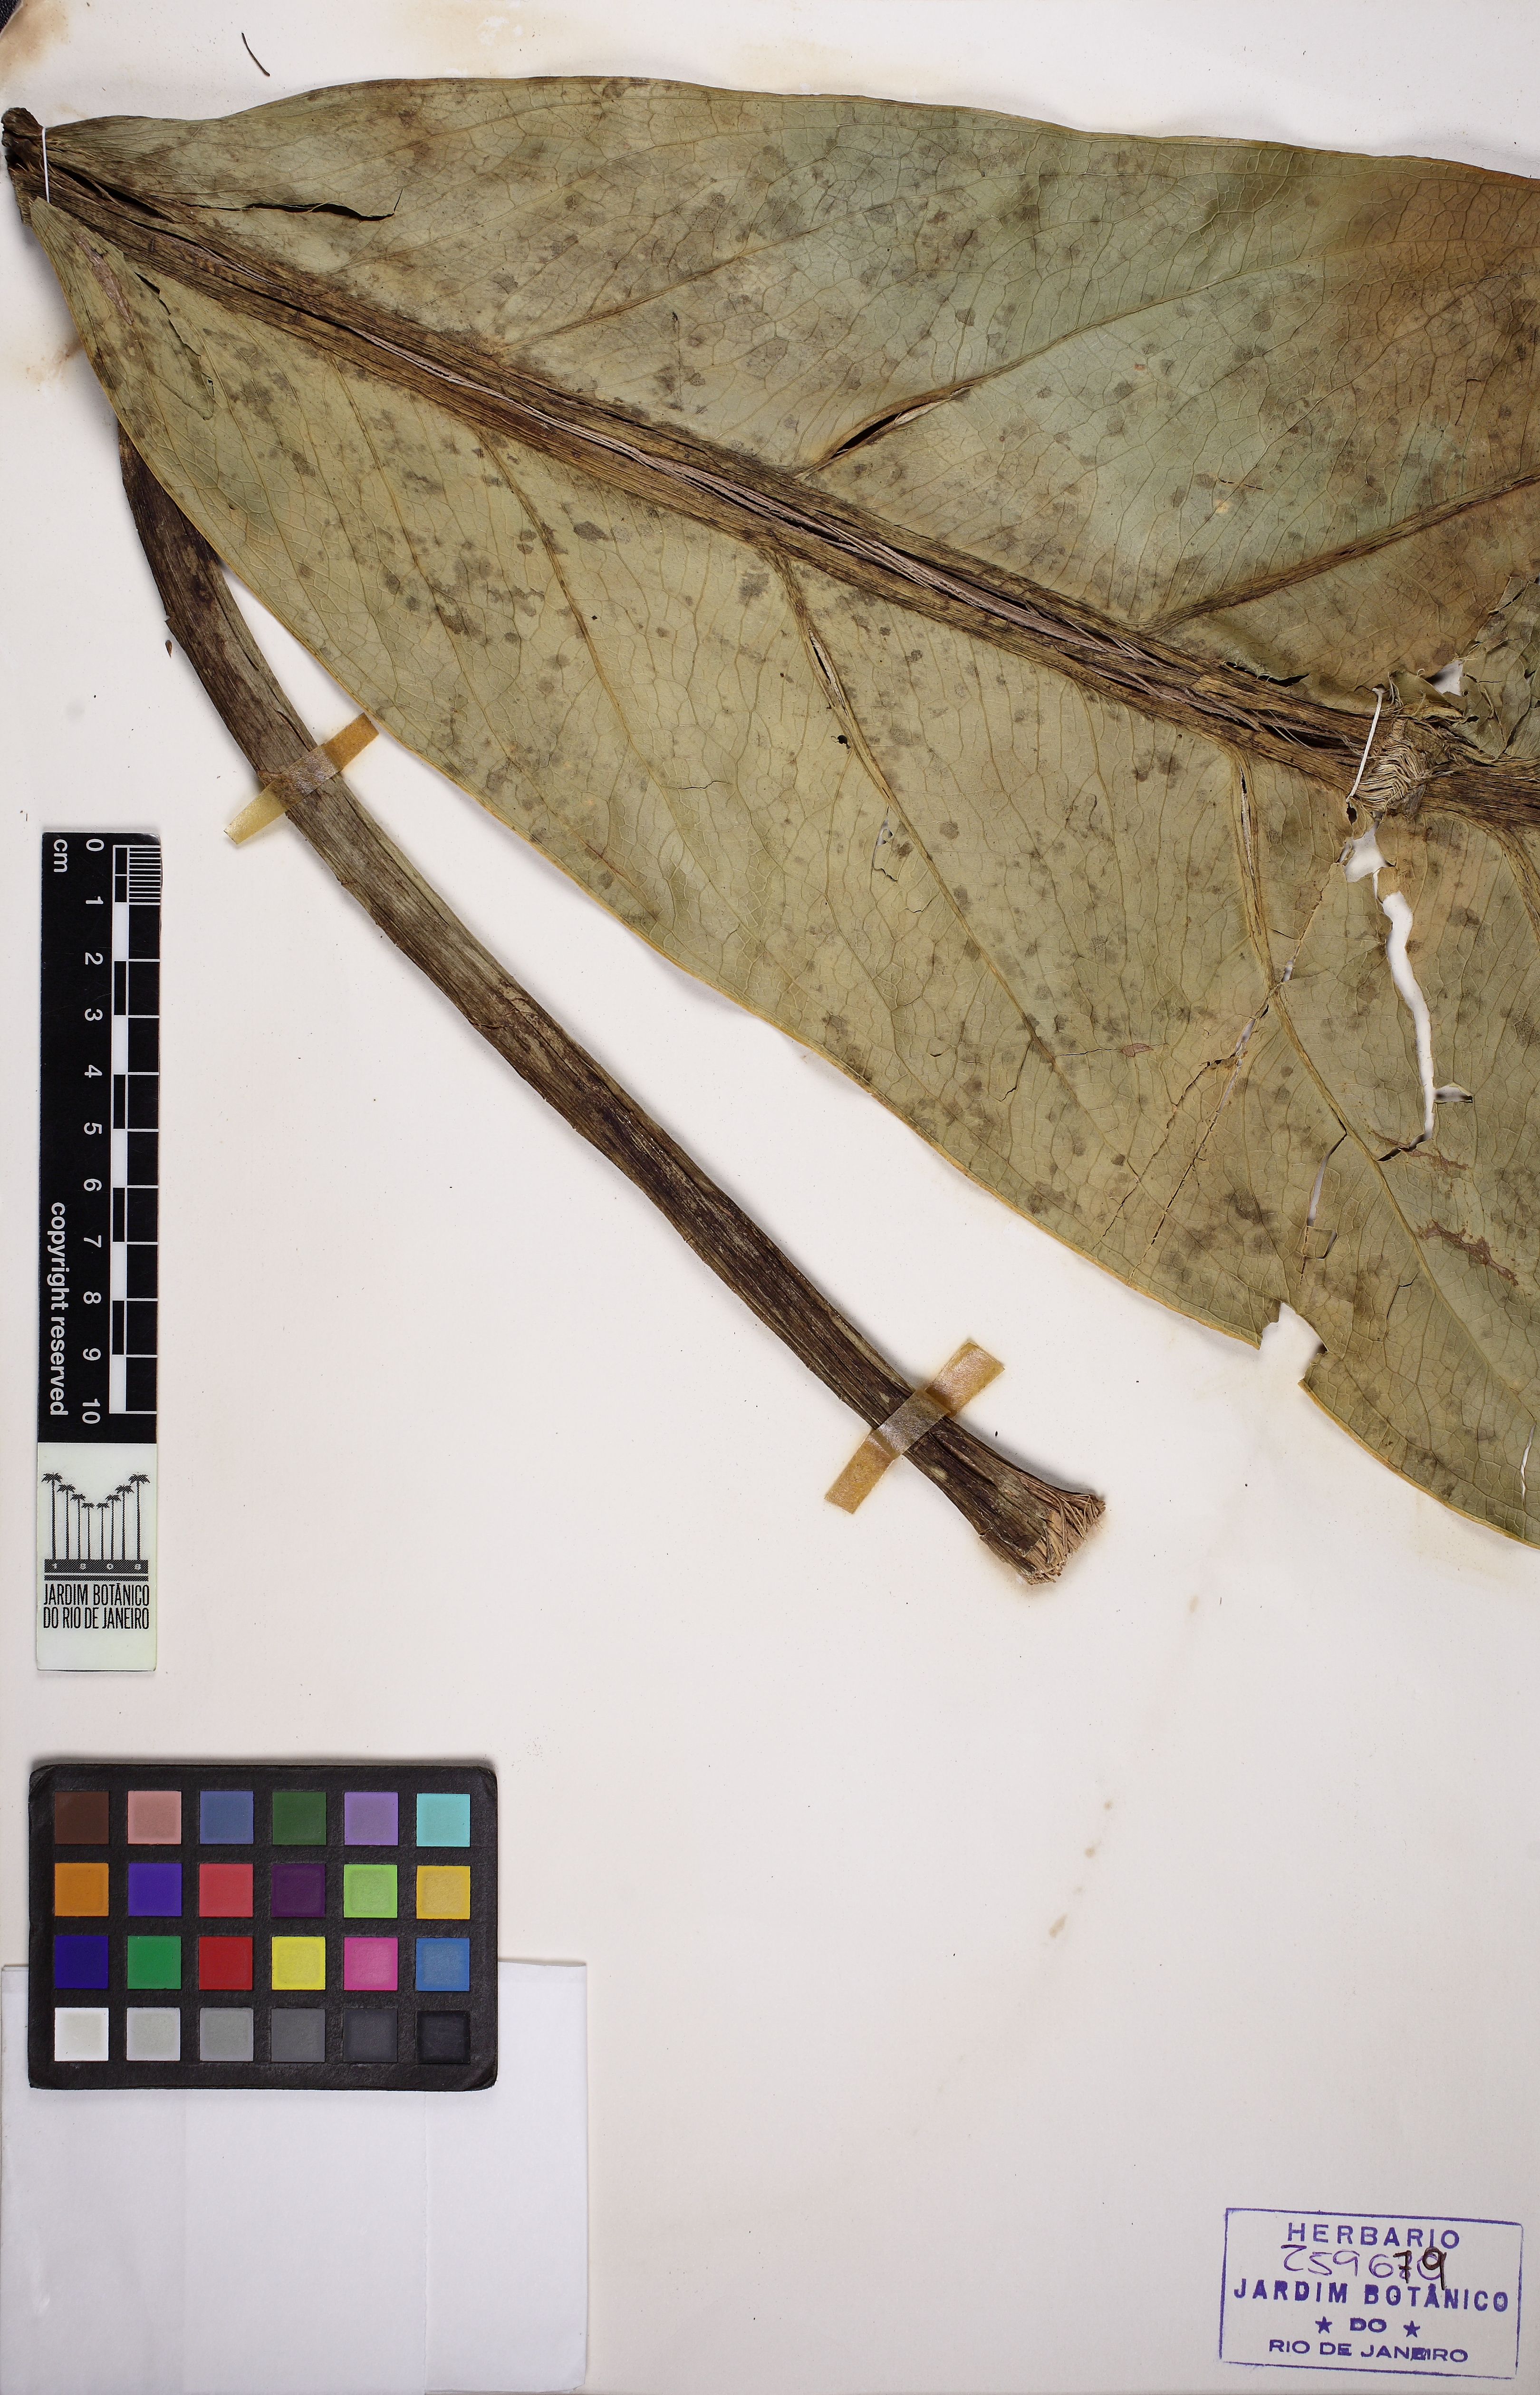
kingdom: Plantae
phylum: Tracheophyta
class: Liliopsida
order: Alismatales
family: Araceae
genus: Anthurium
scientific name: Anthurium solitarium
